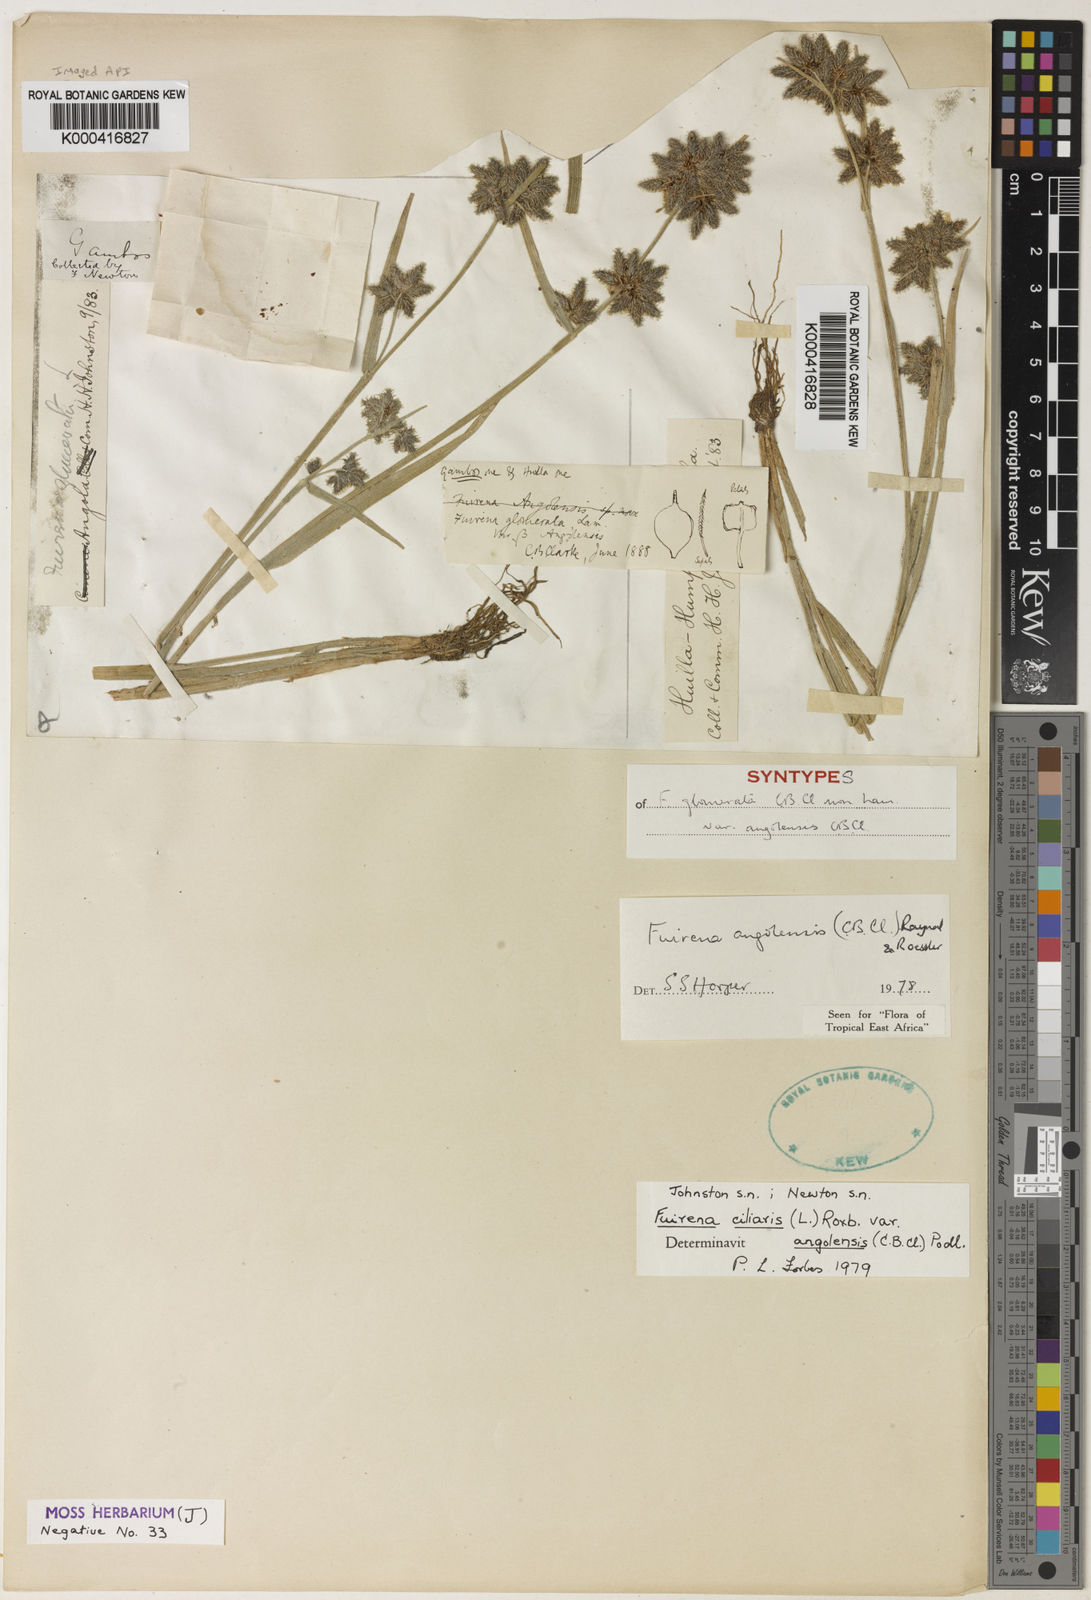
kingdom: Plantae
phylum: Tracheophyta
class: Liliopsida
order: Poales
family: Cyperaceae
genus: Fuirena
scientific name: Fuirena ciliaris
